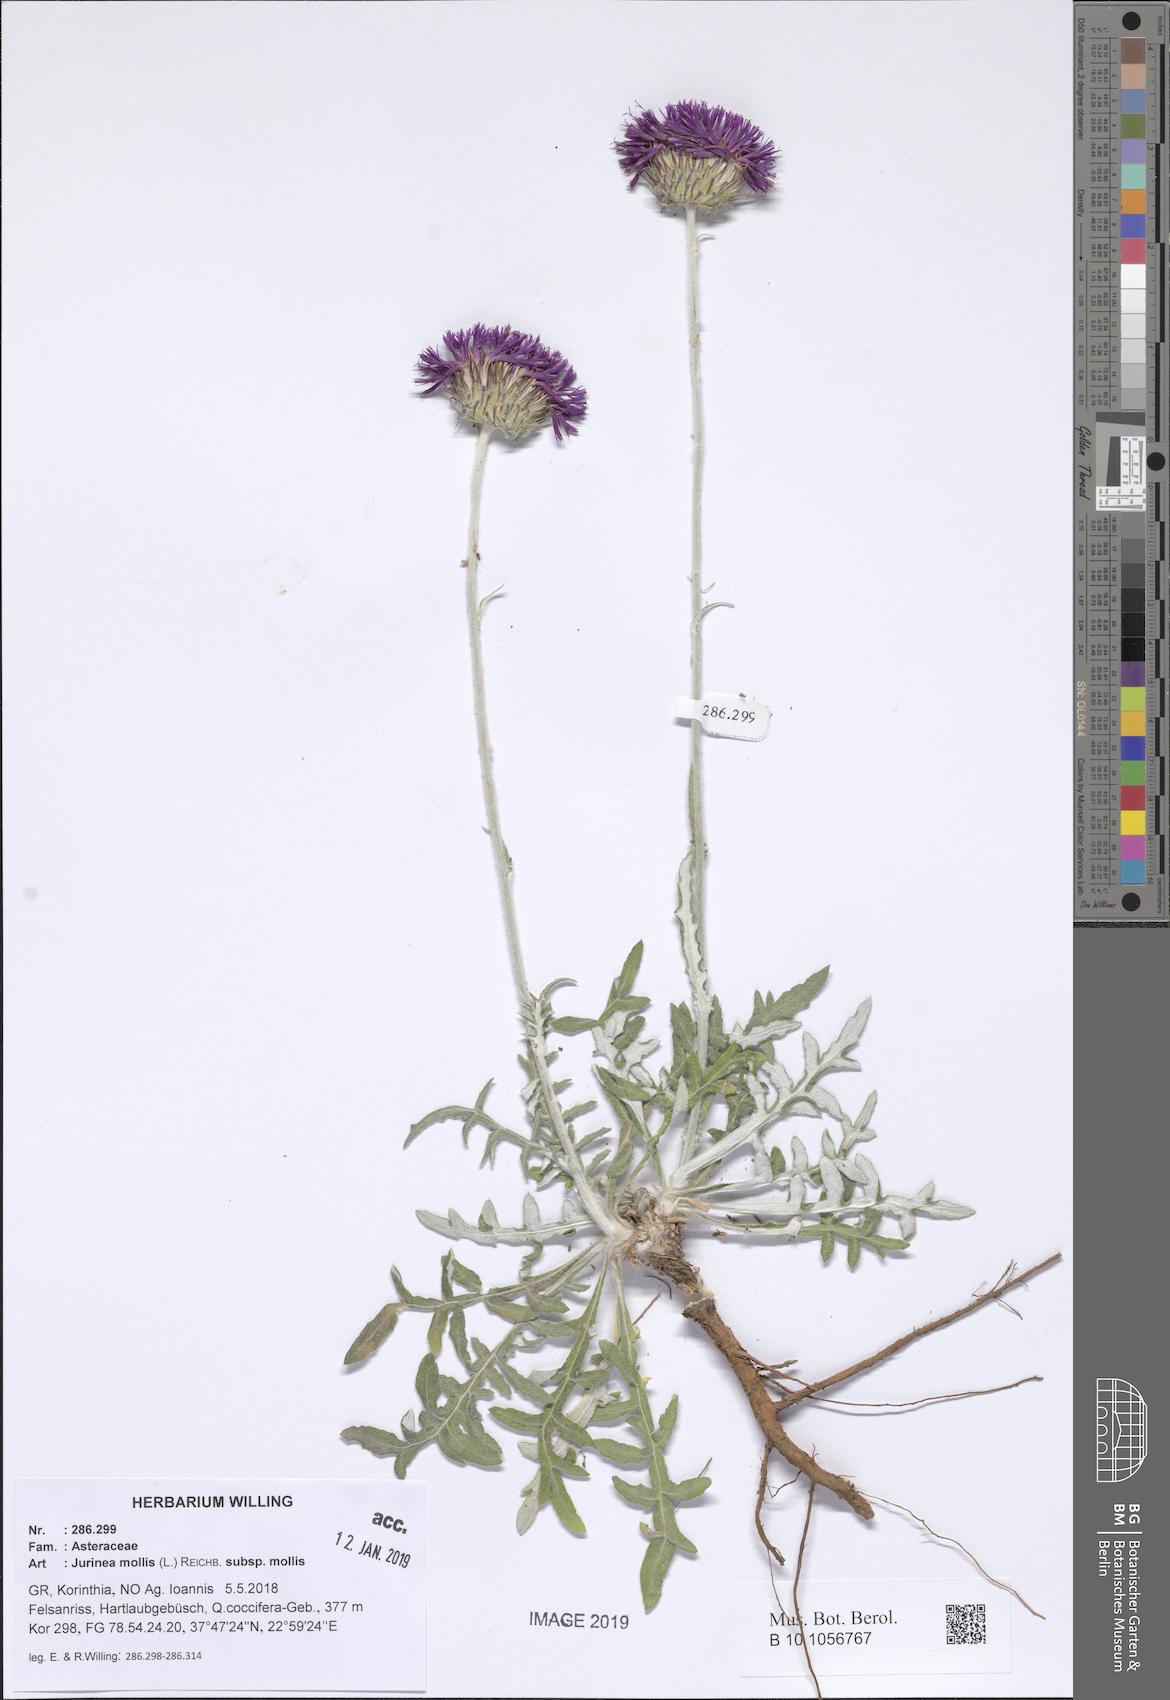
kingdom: Plantae
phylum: Tracheophyta
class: Magnoliopsida
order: Asterales
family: Asteraceae
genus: Jurinea
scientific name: Jurinea glycacantha
